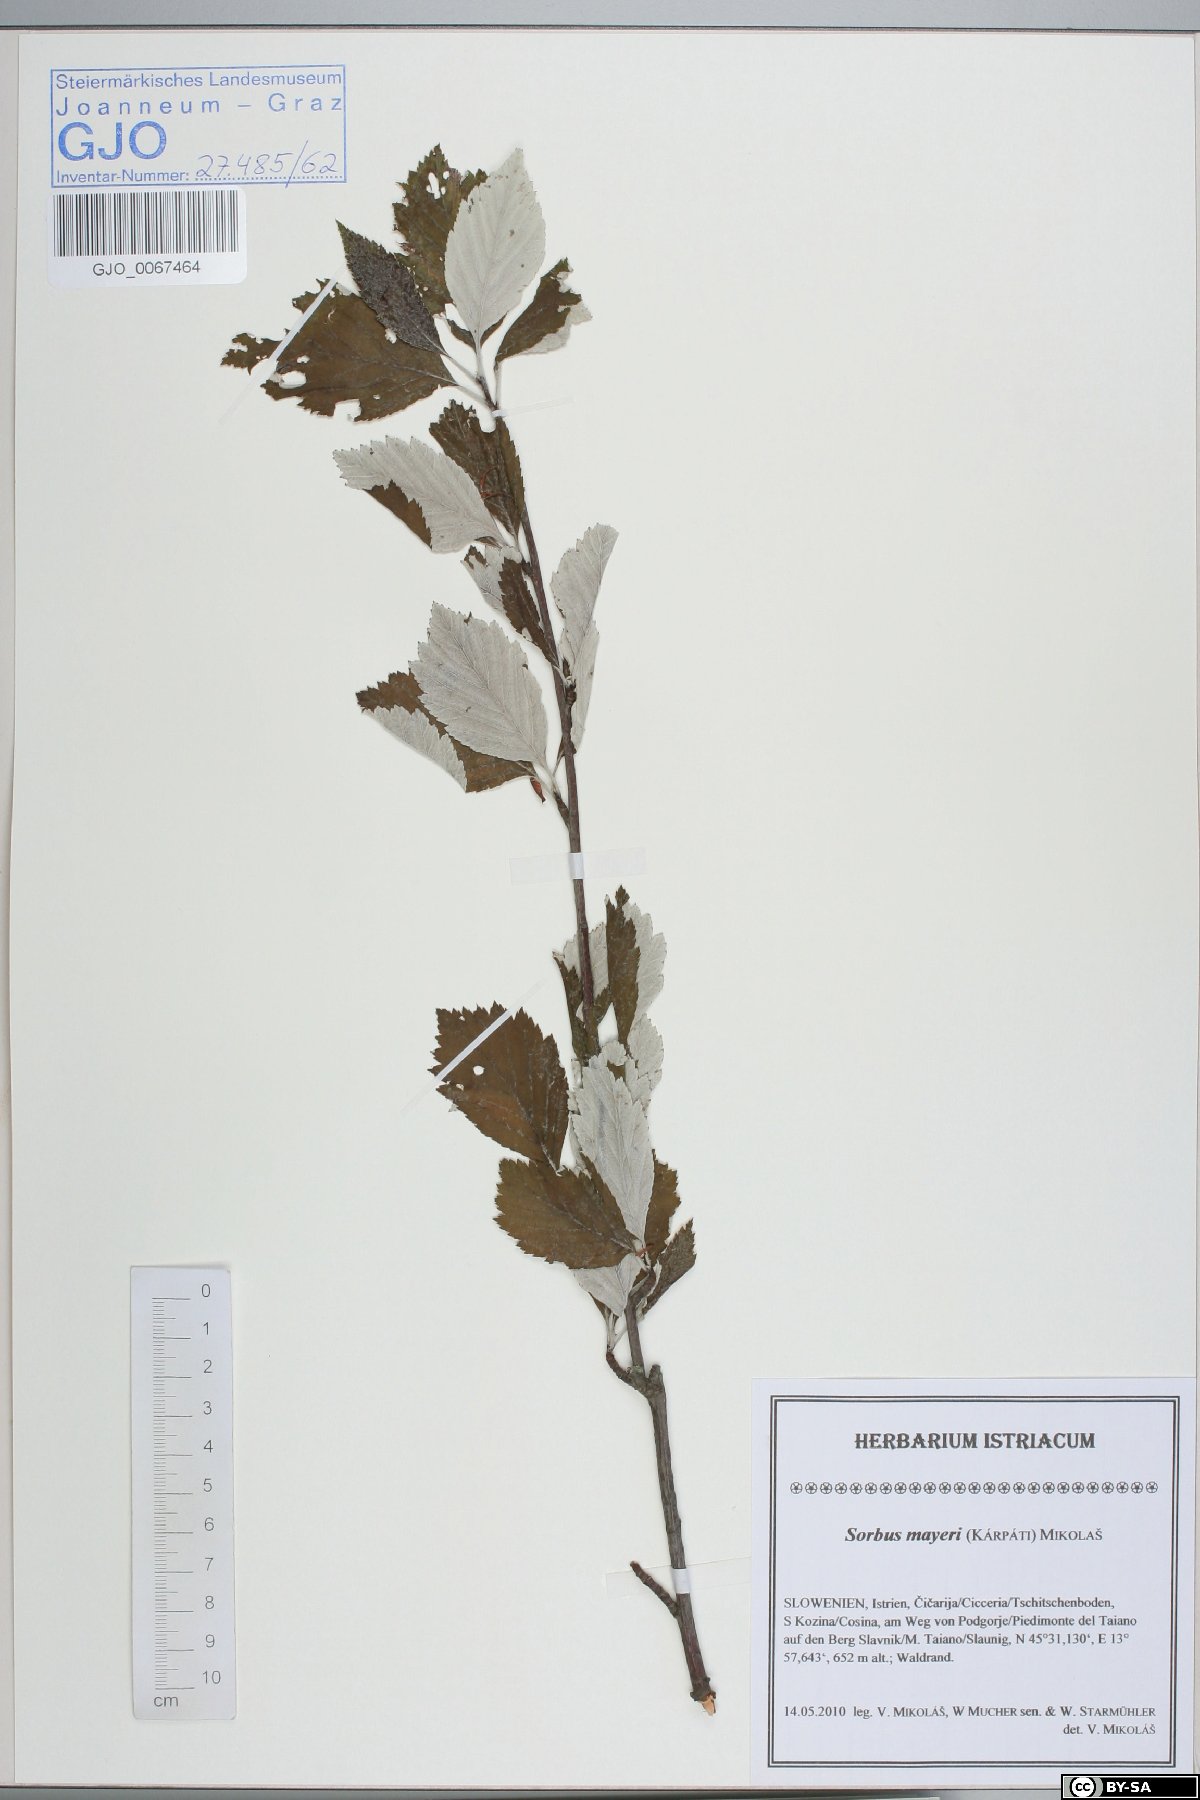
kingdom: Plantae
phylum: Tracheophyta
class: Magnoliopsida
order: Rosales
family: Rosaceae
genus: Hedlundia
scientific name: Hedlundia mayeri
